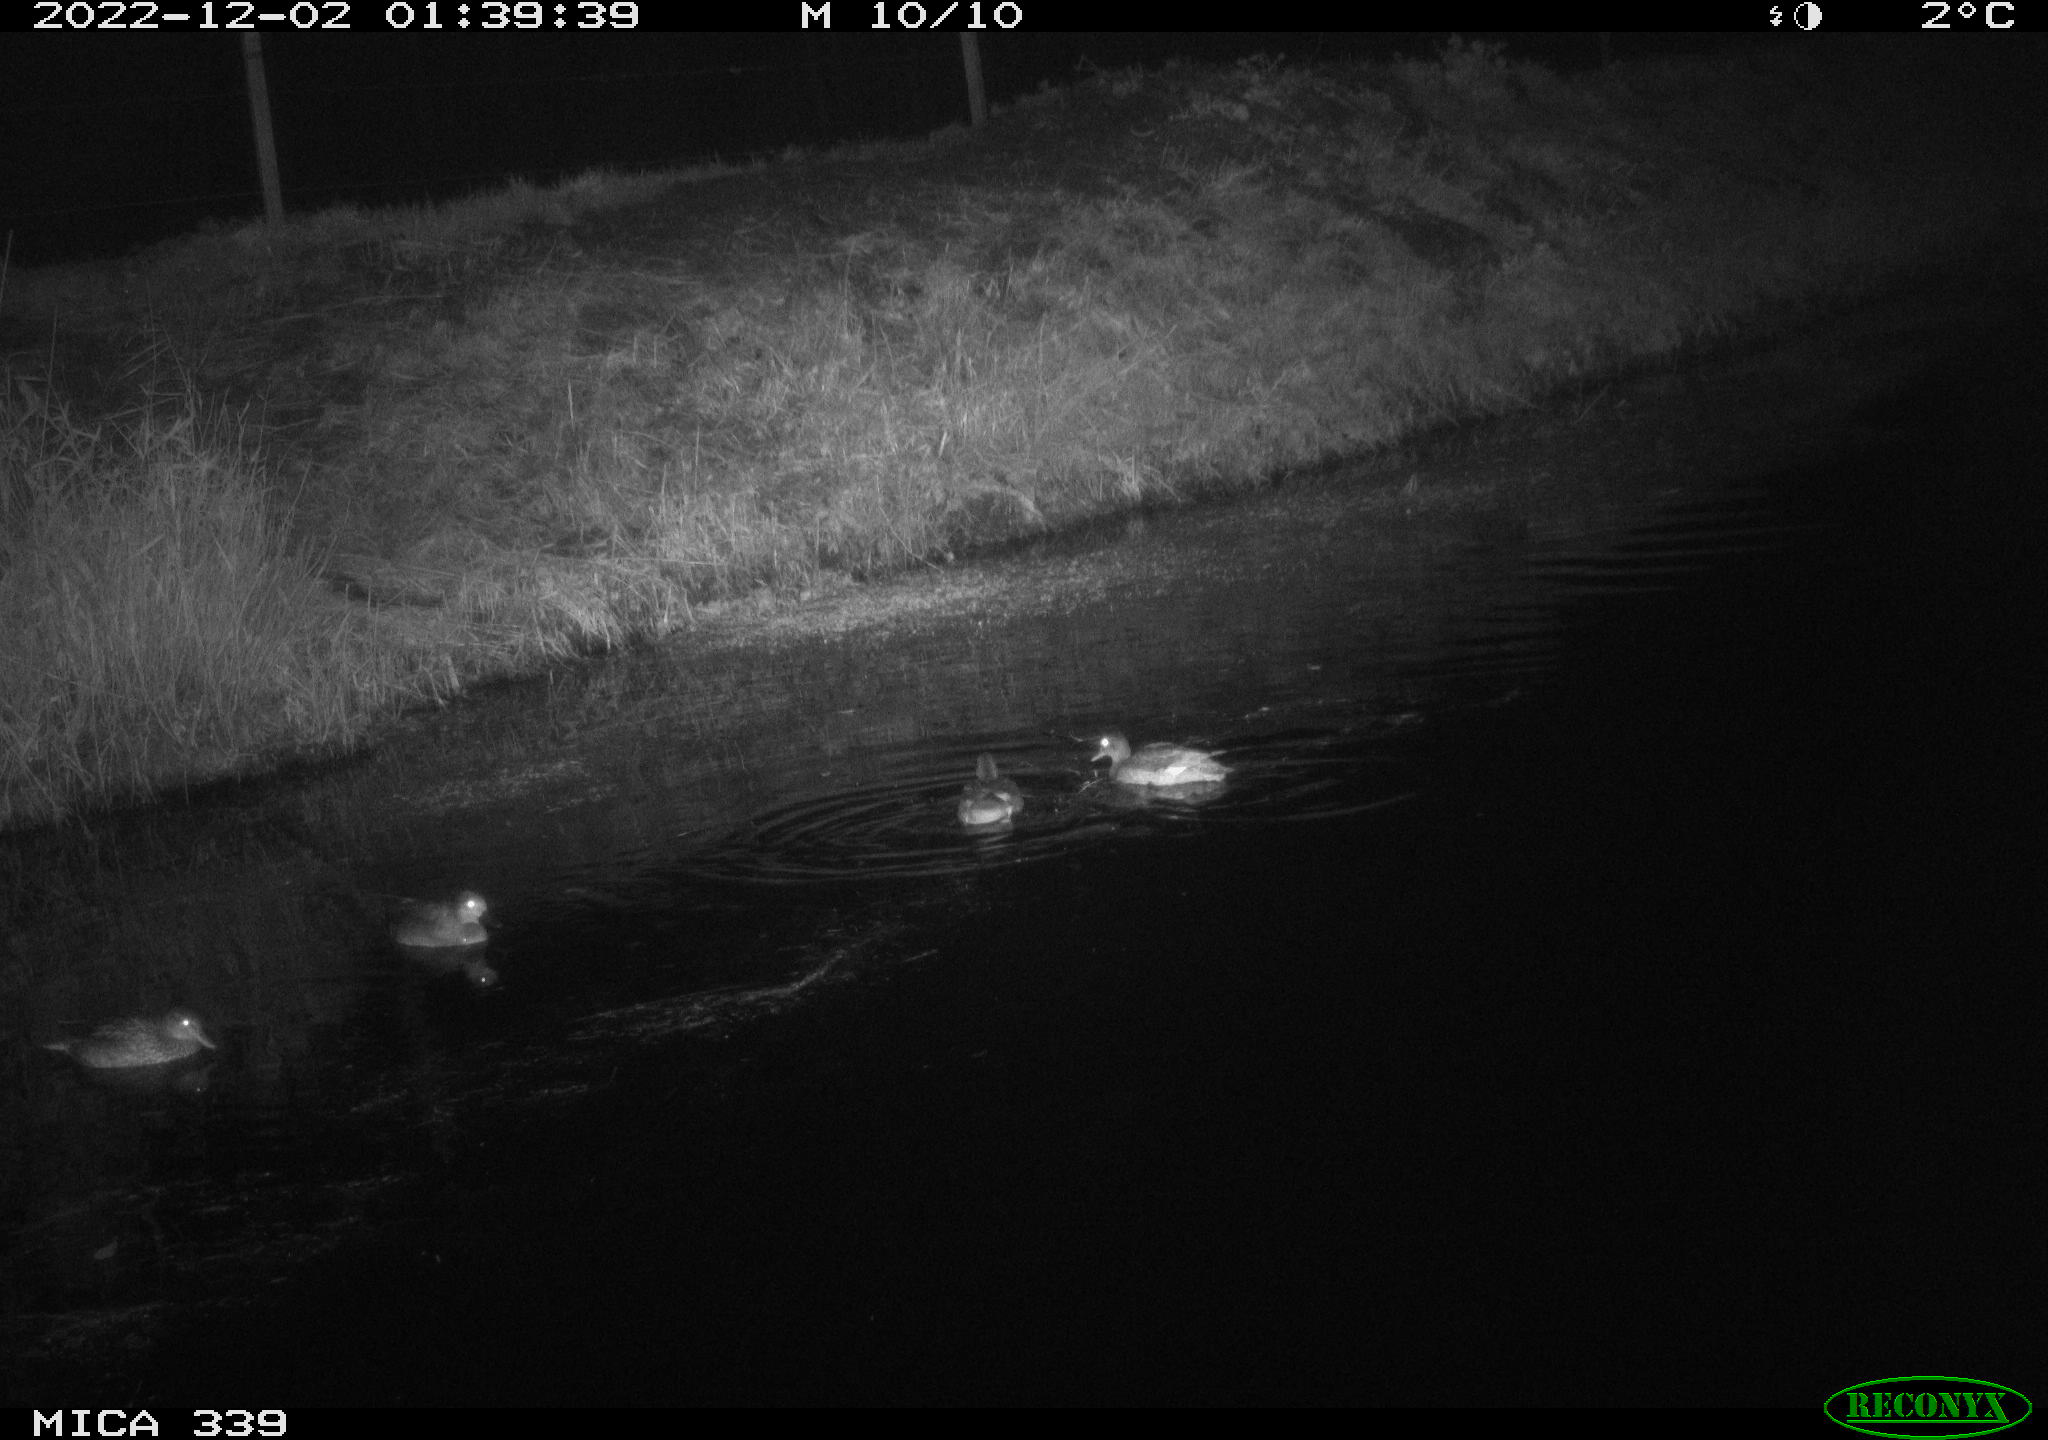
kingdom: Animalia
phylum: Chordata
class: Aves
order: Anseriformes
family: Anatidae
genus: Anas
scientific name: Anas
